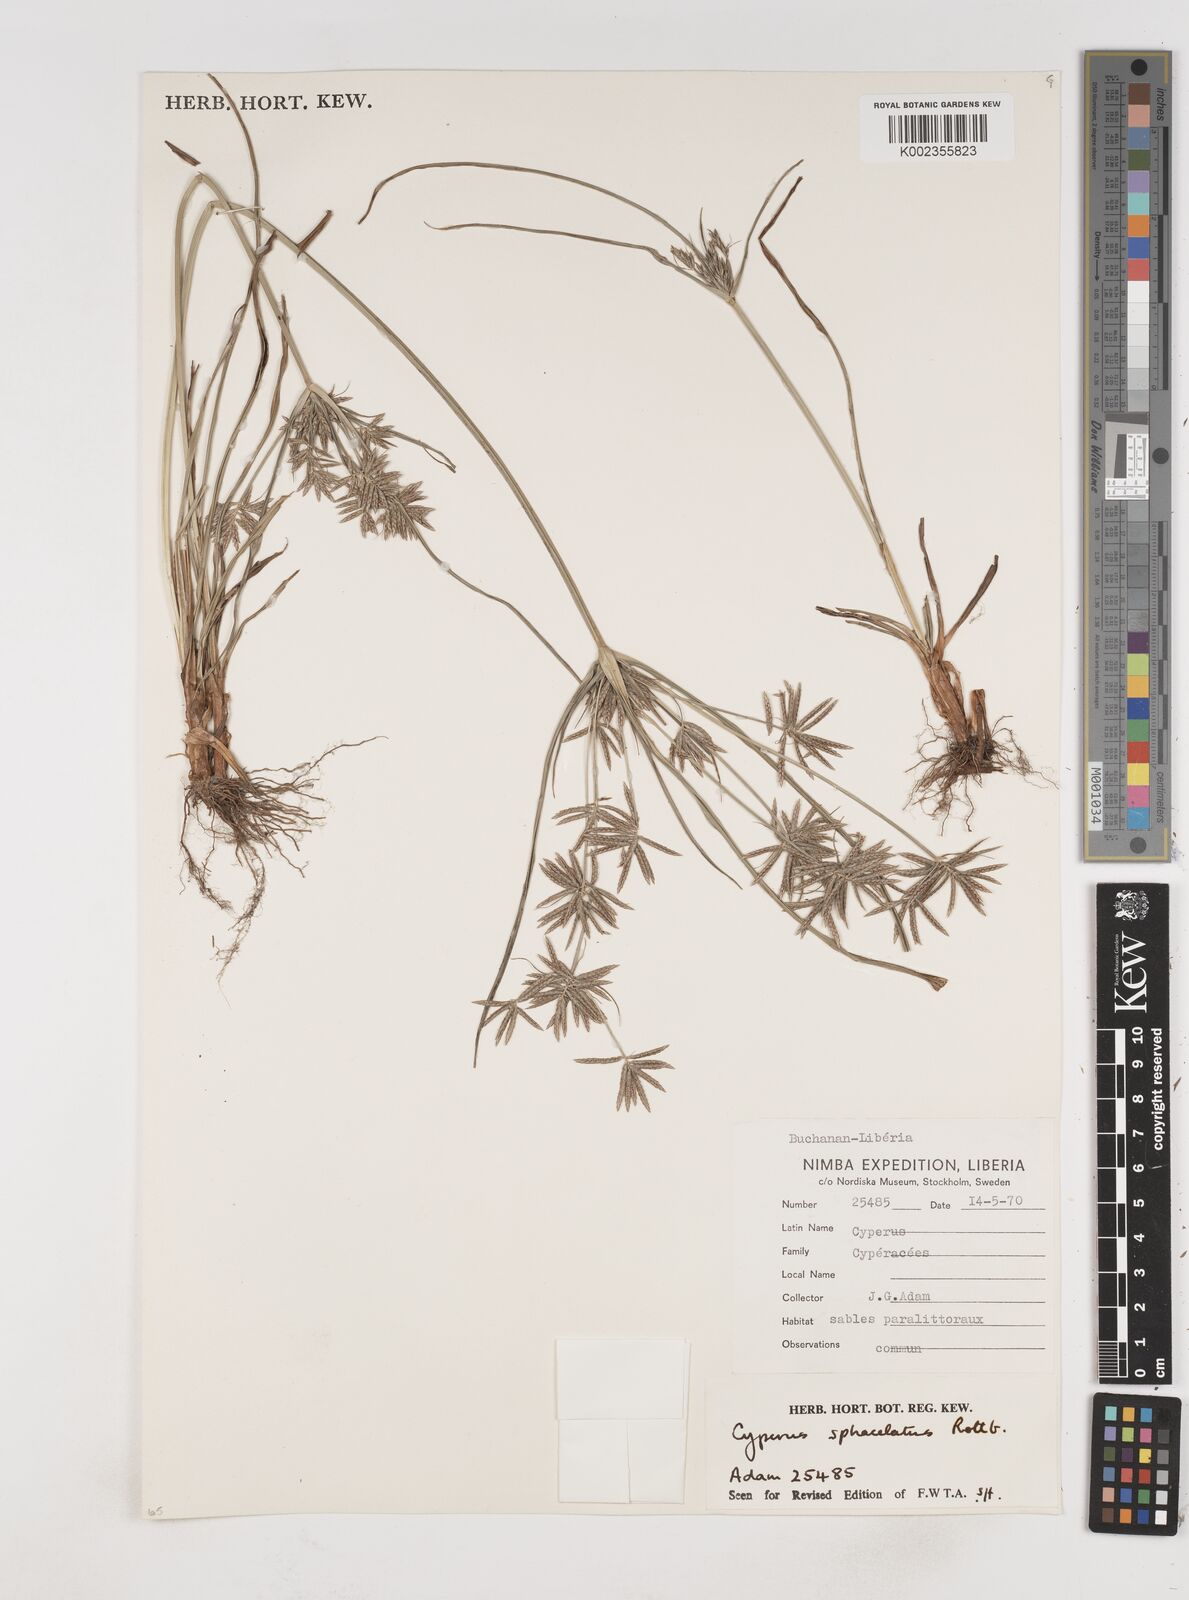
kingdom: Plantae
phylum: Tracheophyta
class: Liliopsida
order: Poales
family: Cyperaceae
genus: Cyperus
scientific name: Cyperus sphacelatus
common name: Roadside flatsedge
